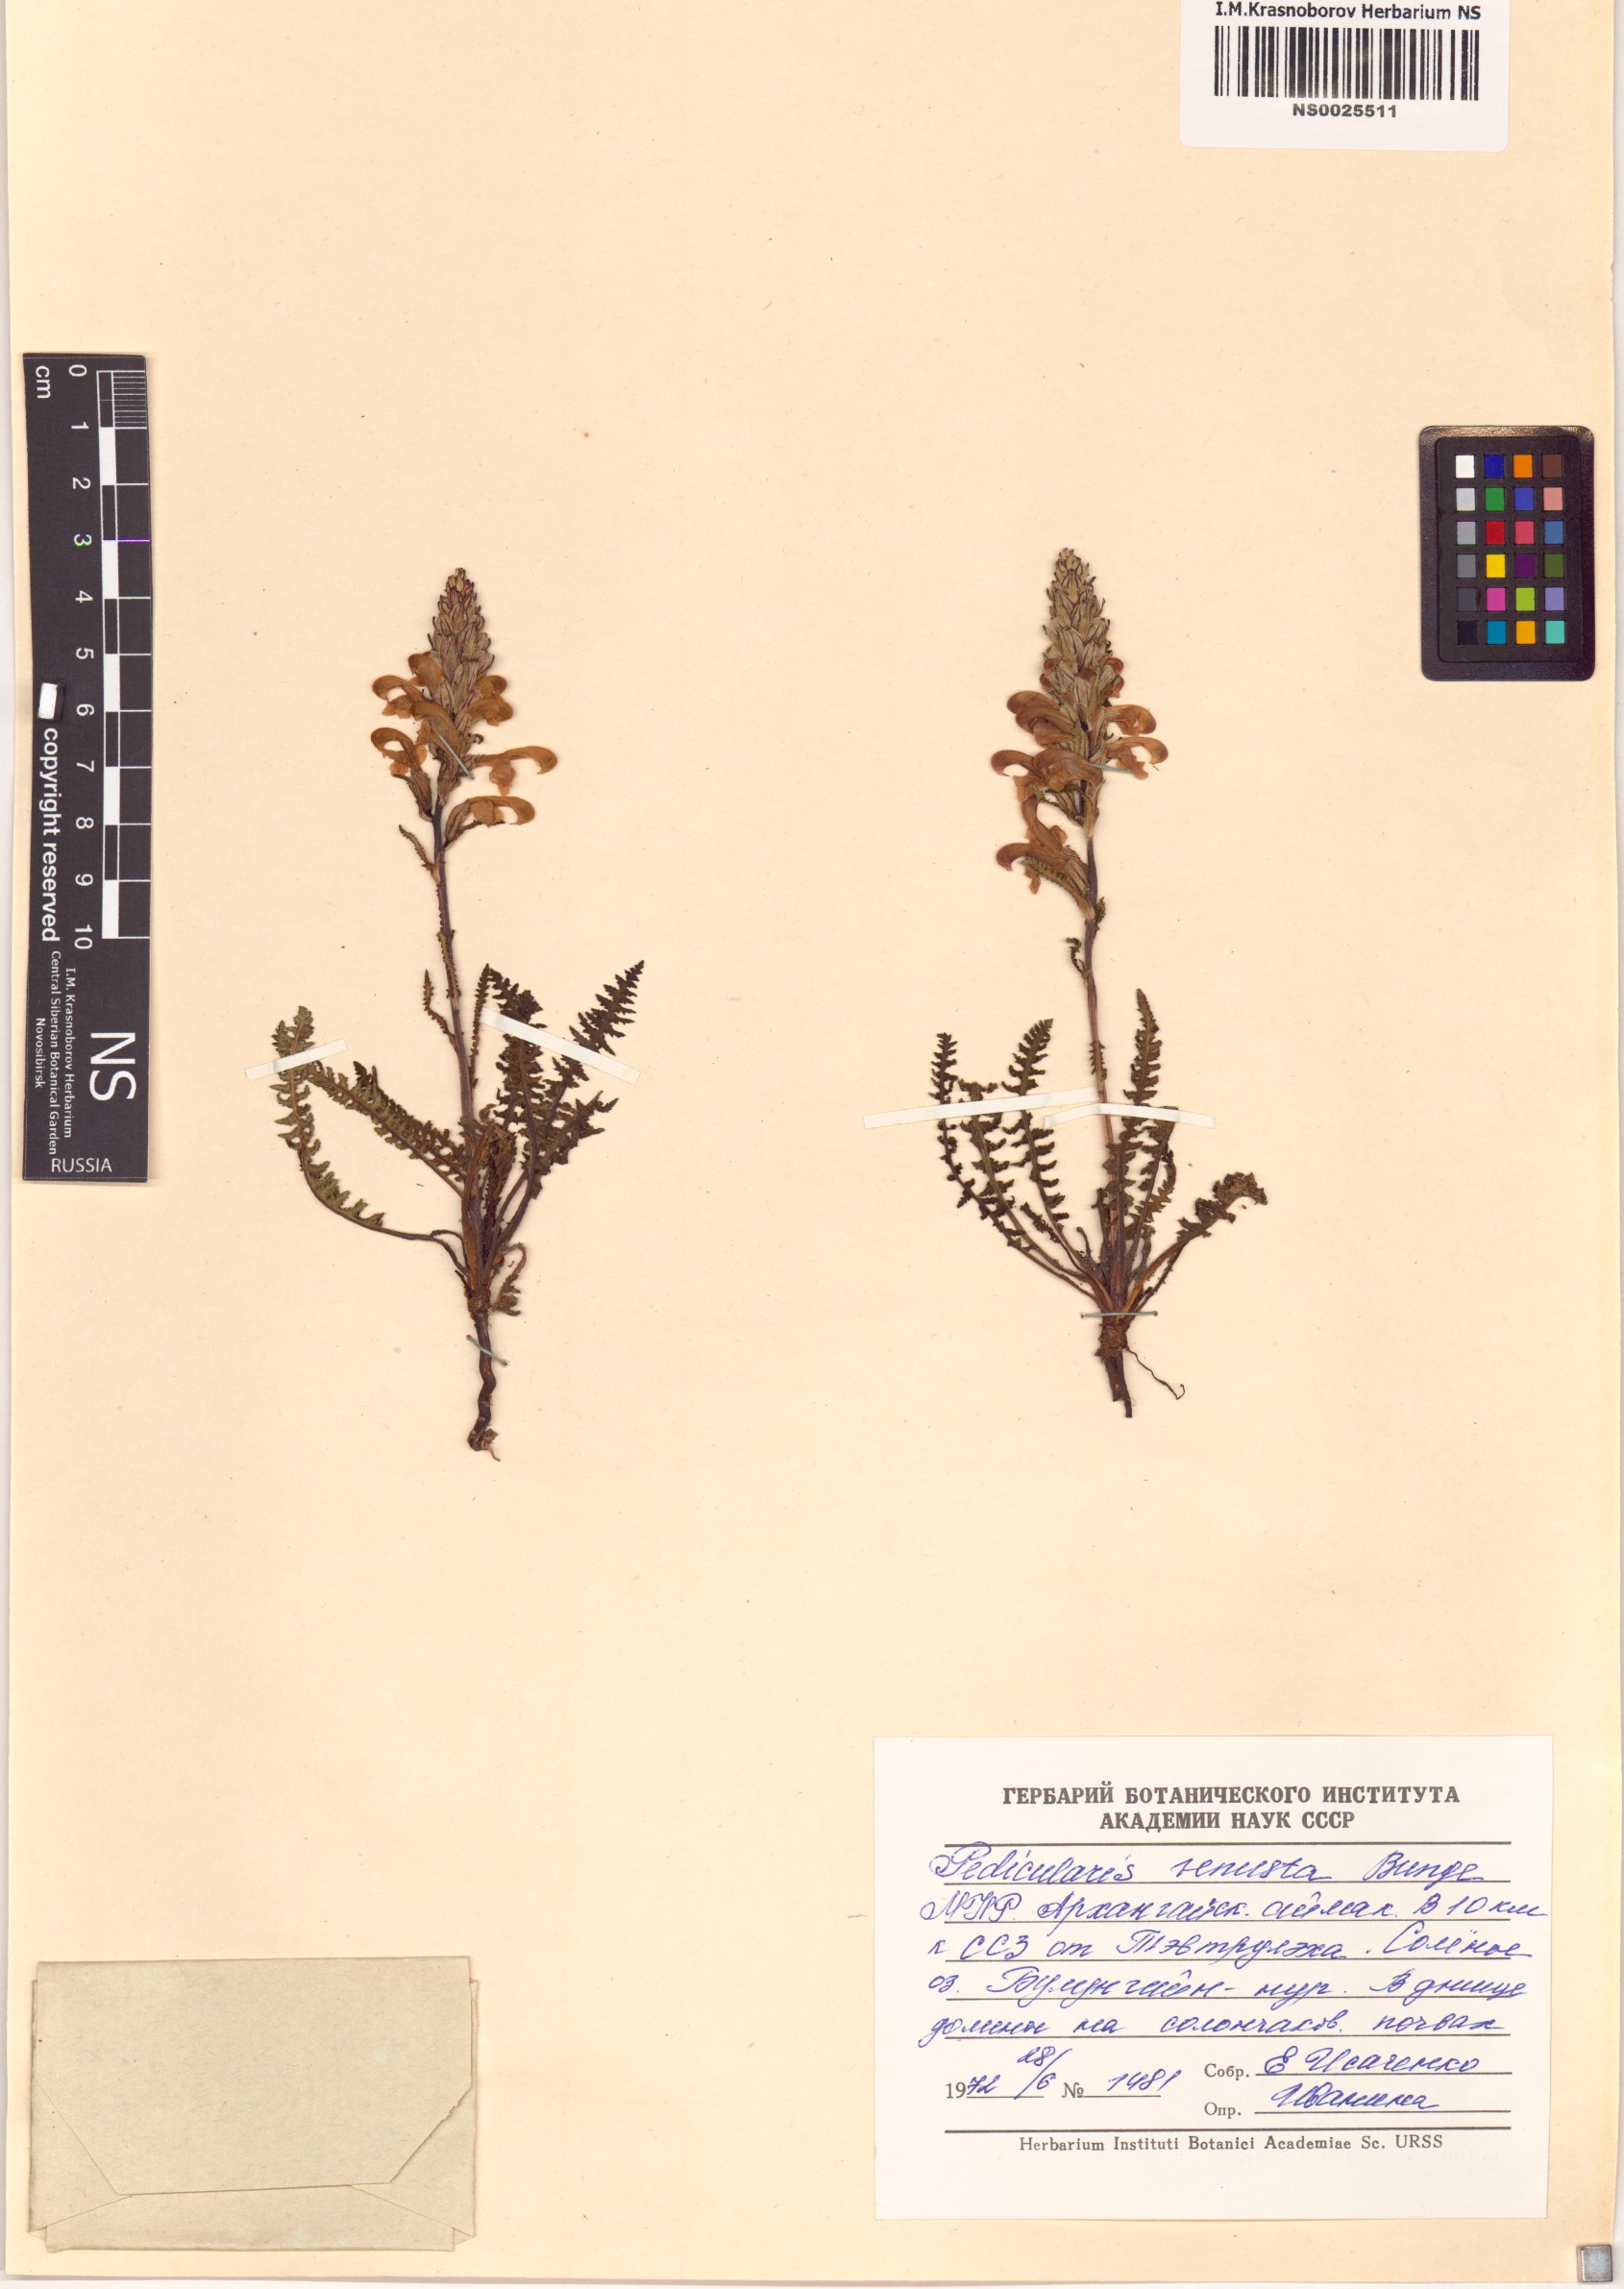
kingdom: Plantae
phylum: Tracheophyta
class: Magnoliopsida
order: Lamiales
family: Orobanchaceae
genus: Pedicularis
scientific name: Pedicularis venusta
